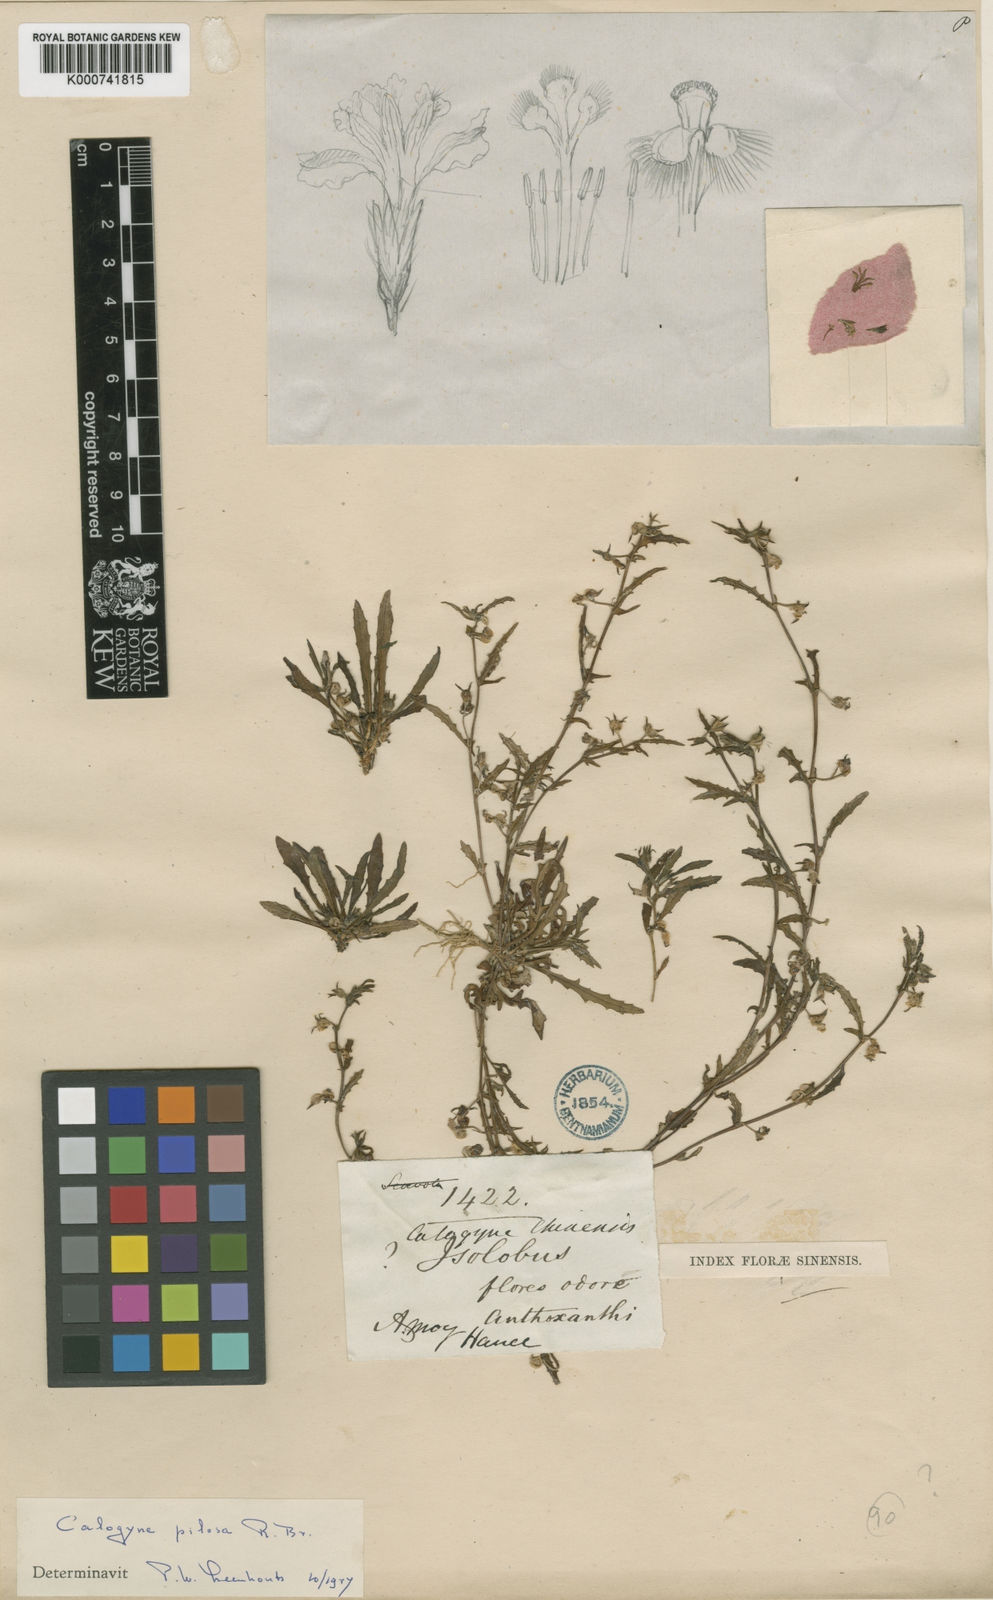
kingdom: Plantae
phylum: Tracheophyta
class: Magnoliopsida
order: Asterales
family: Goodeniaceae
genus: Goodenia
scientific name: Goodenia pilosa
